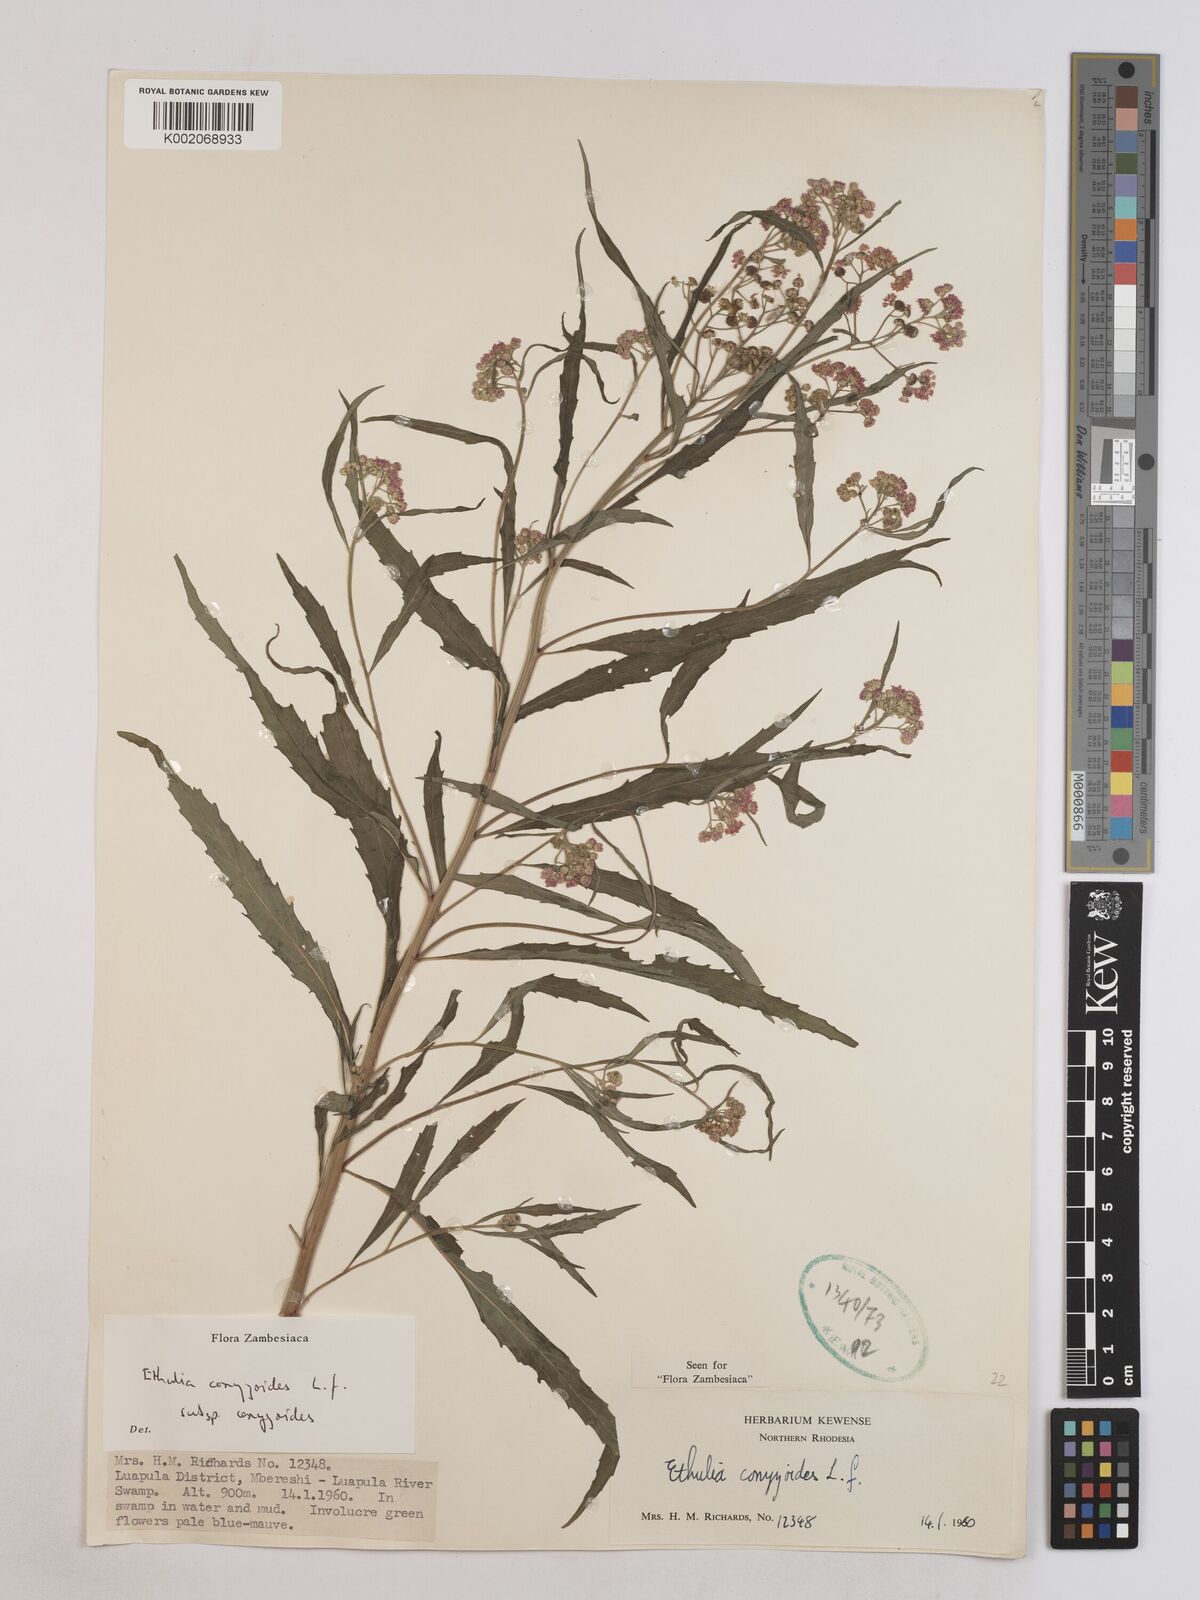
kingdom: Plantae
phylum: Tracheophyta
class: Magnoliopsida
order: Asterales
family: Asteraceae
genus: Ethulia
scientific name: Ethulia conyzoides
